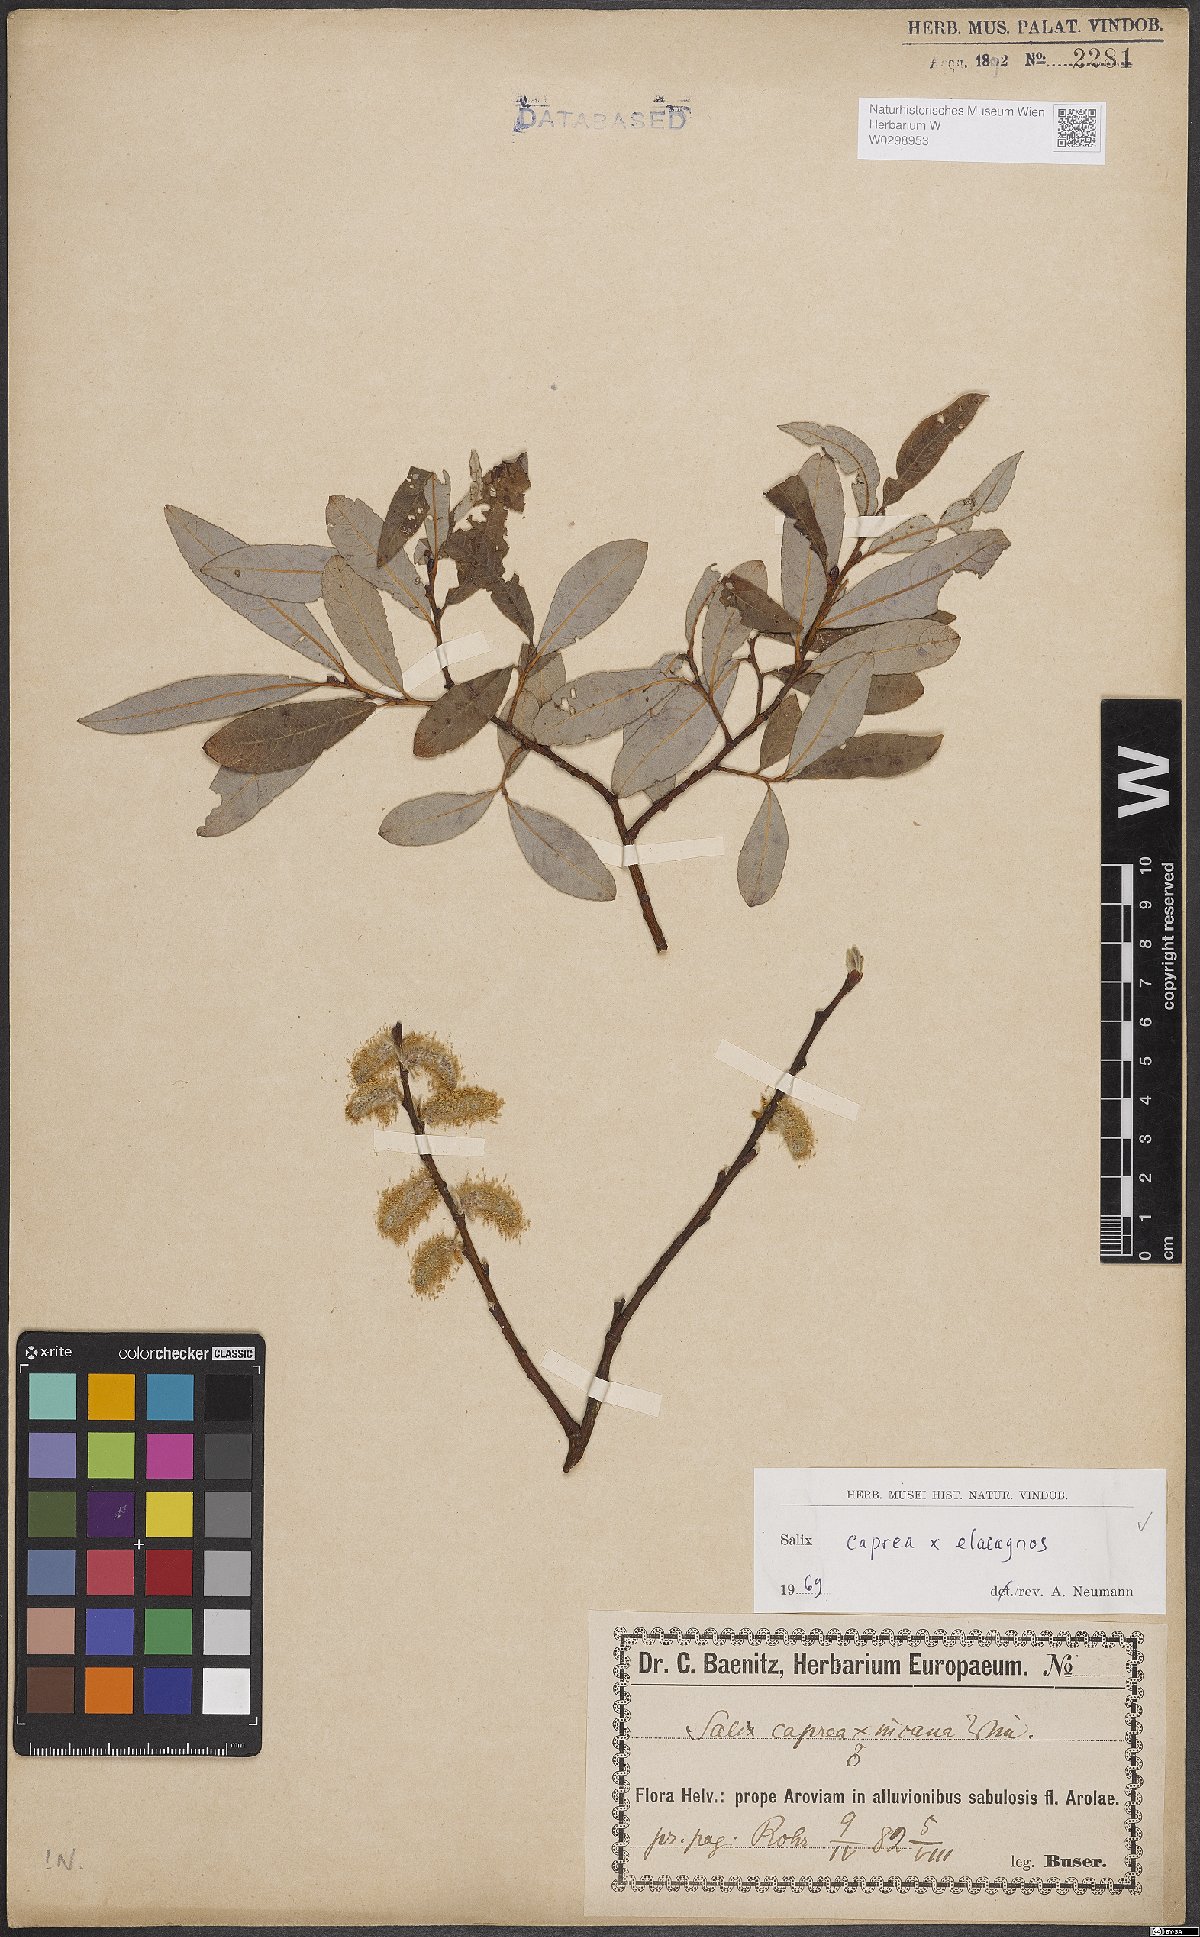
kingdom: Plantae
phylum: Tracheophyta
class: Magnoliopsida
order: Malpighiales
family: Salicaceae
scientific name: Salicaceae
